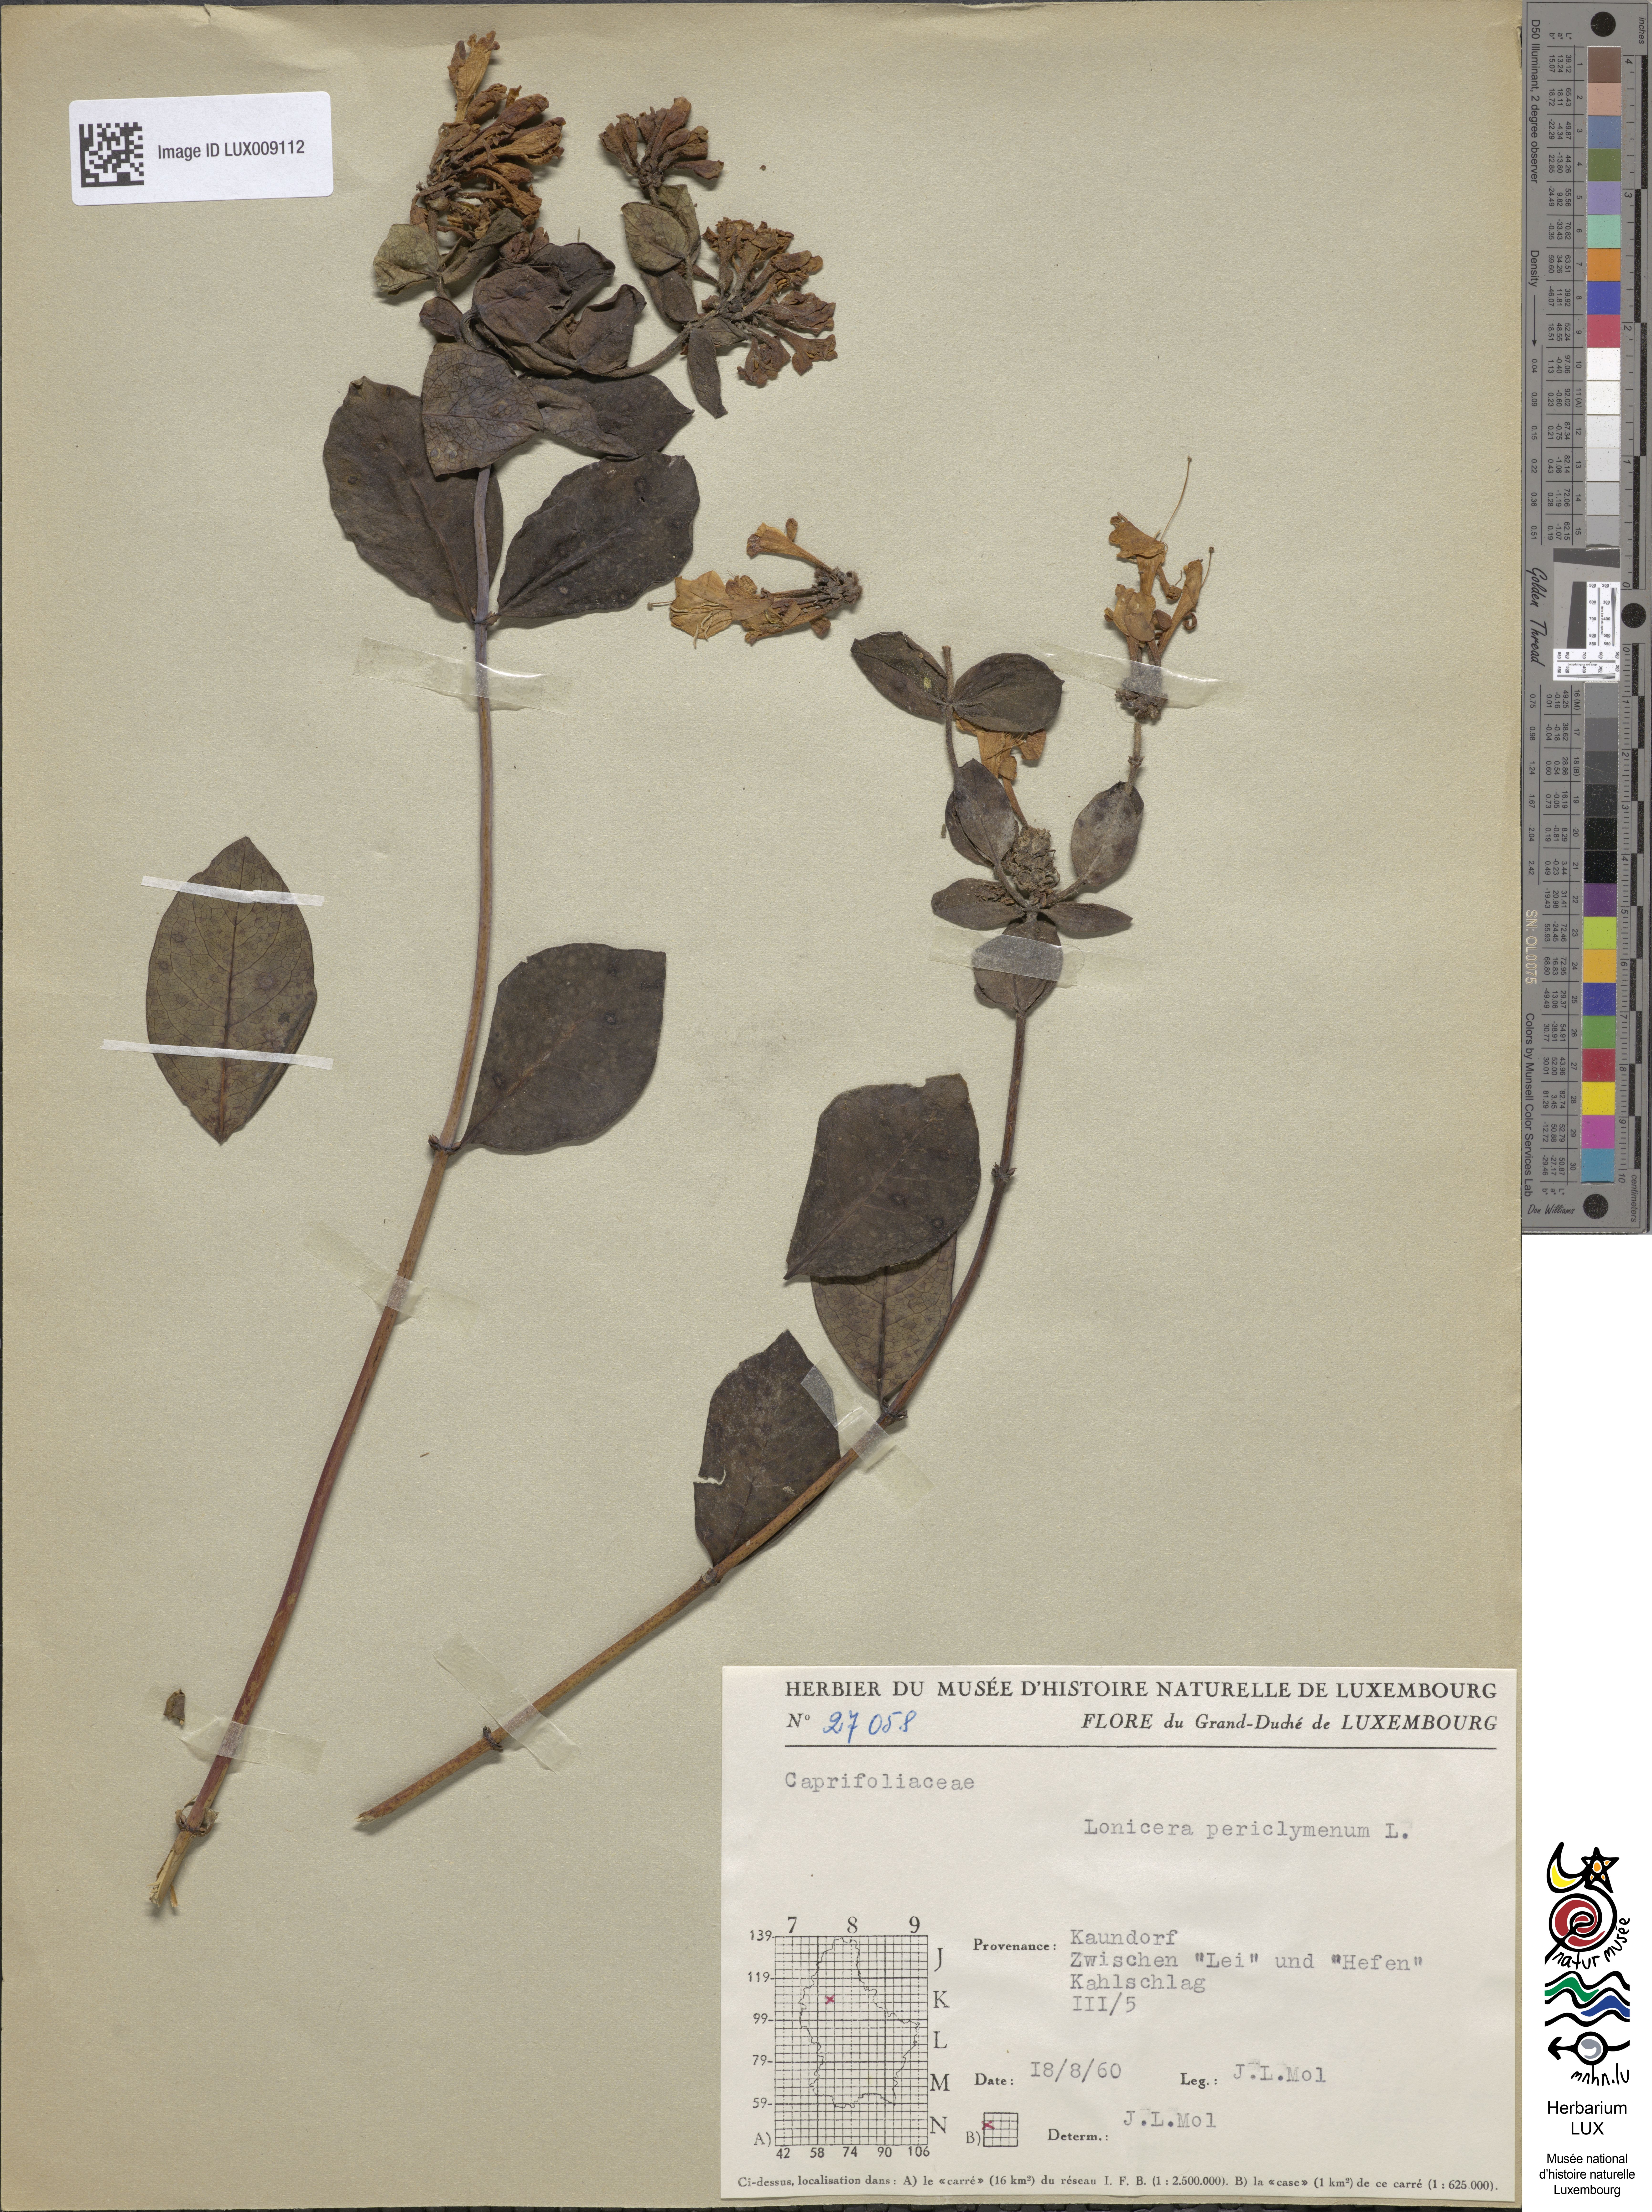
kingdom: Plantae
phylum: Tracheophyta
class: Magnoliopsida
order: Dipsacales
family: Caprifoliaceae
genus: Lonicera
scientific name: Lonicera periclymenum
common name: European honeysuckle
